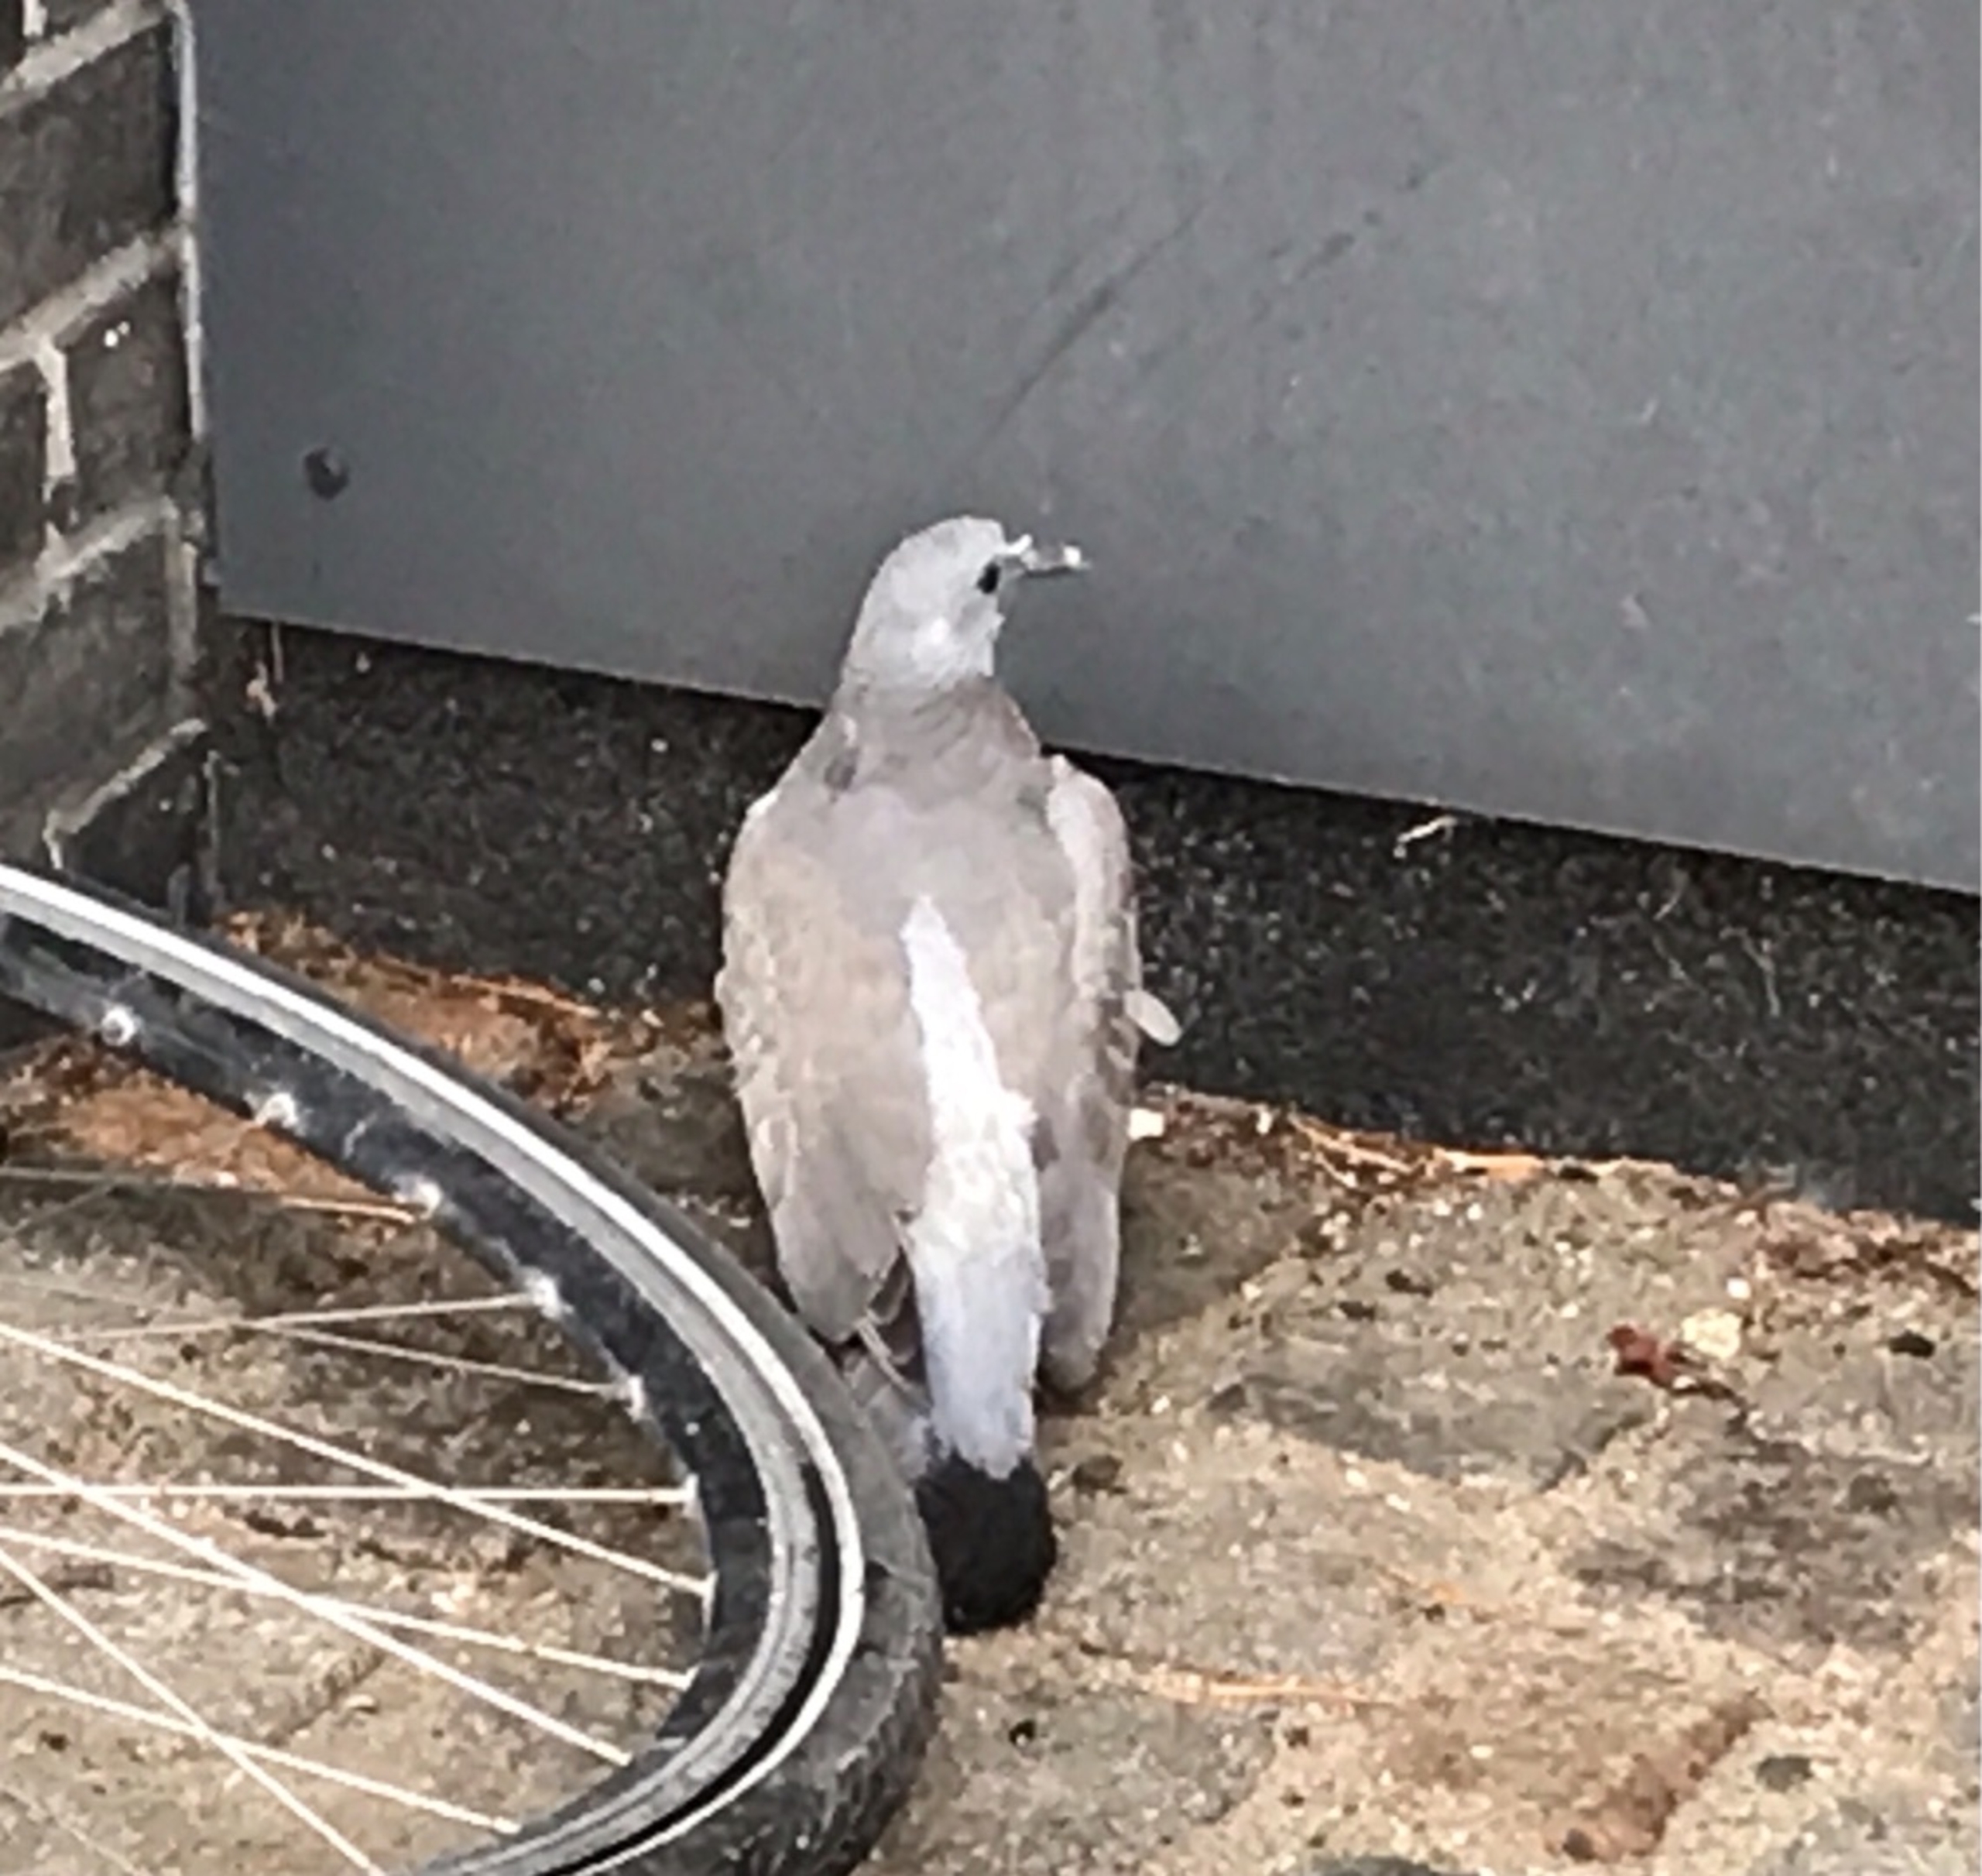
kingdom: Animalia
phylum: Chordata
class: Aves
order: Columbiformes
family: Columbidae
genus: Columba
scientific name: Columba palumbus
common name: Ringdue
